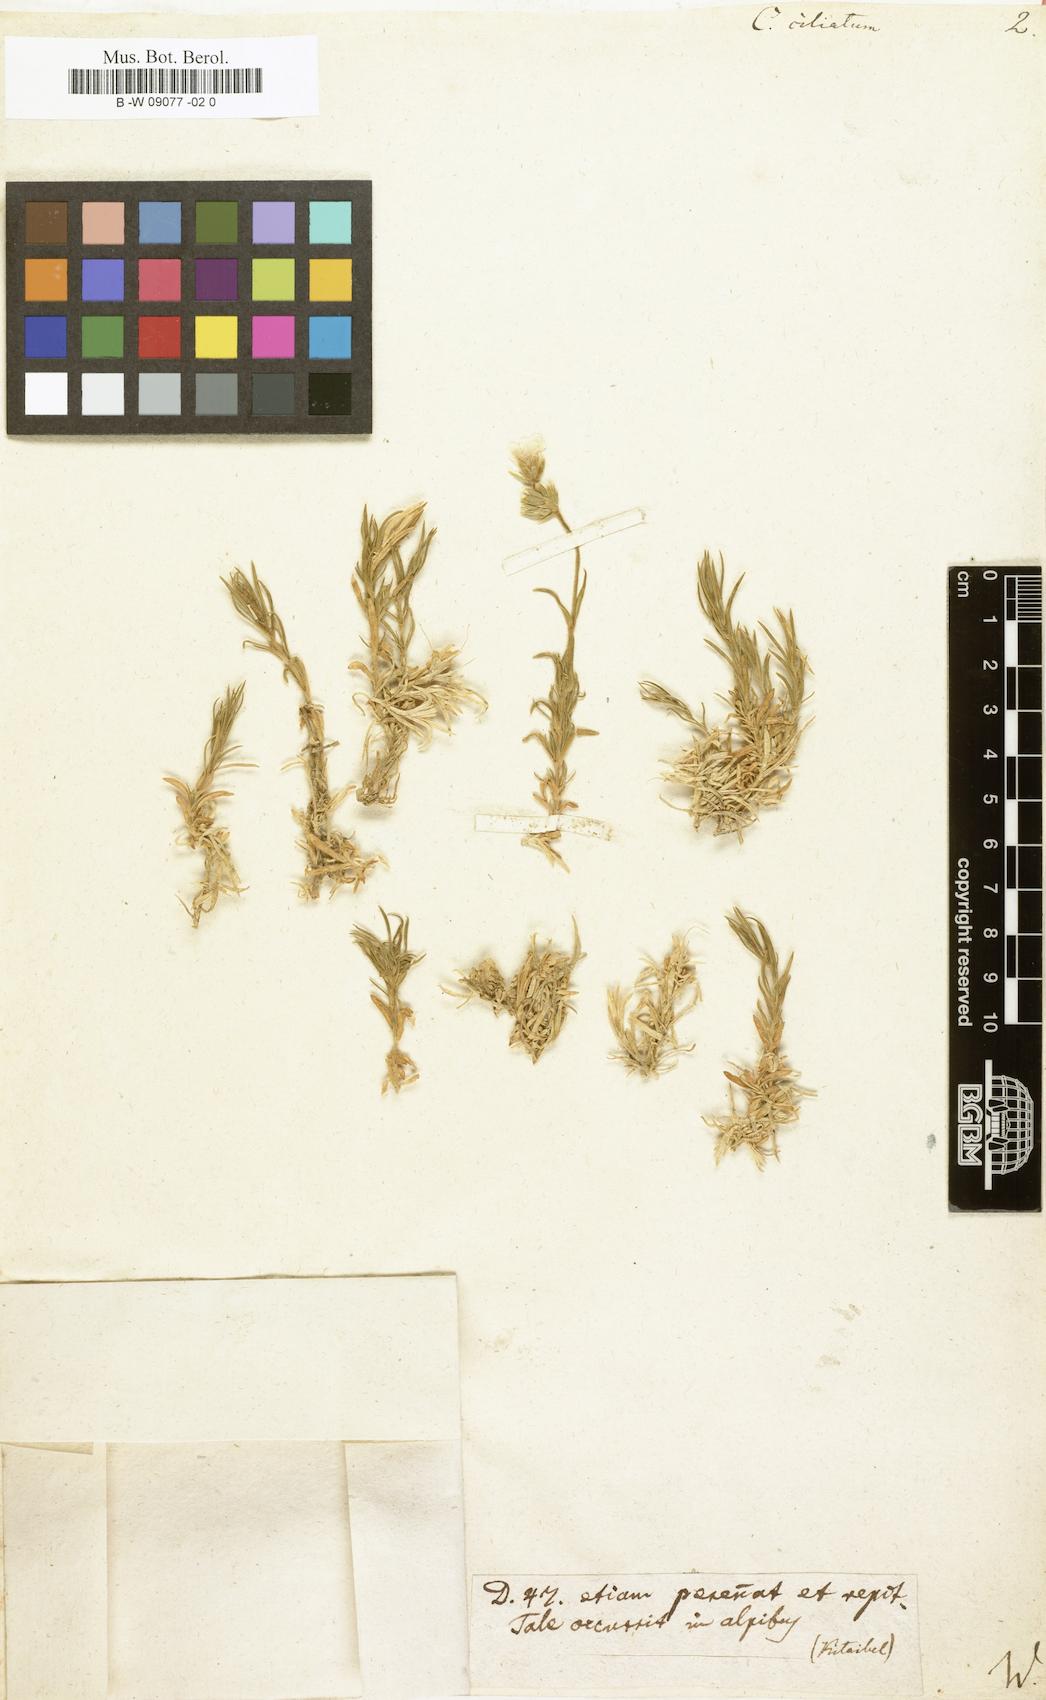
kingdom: Plantae
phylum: Tracheophyta
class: Magnoliopsida
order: Caryophyllales
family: Caryophyllaceae
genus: Cerastium
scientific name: Cerastium
